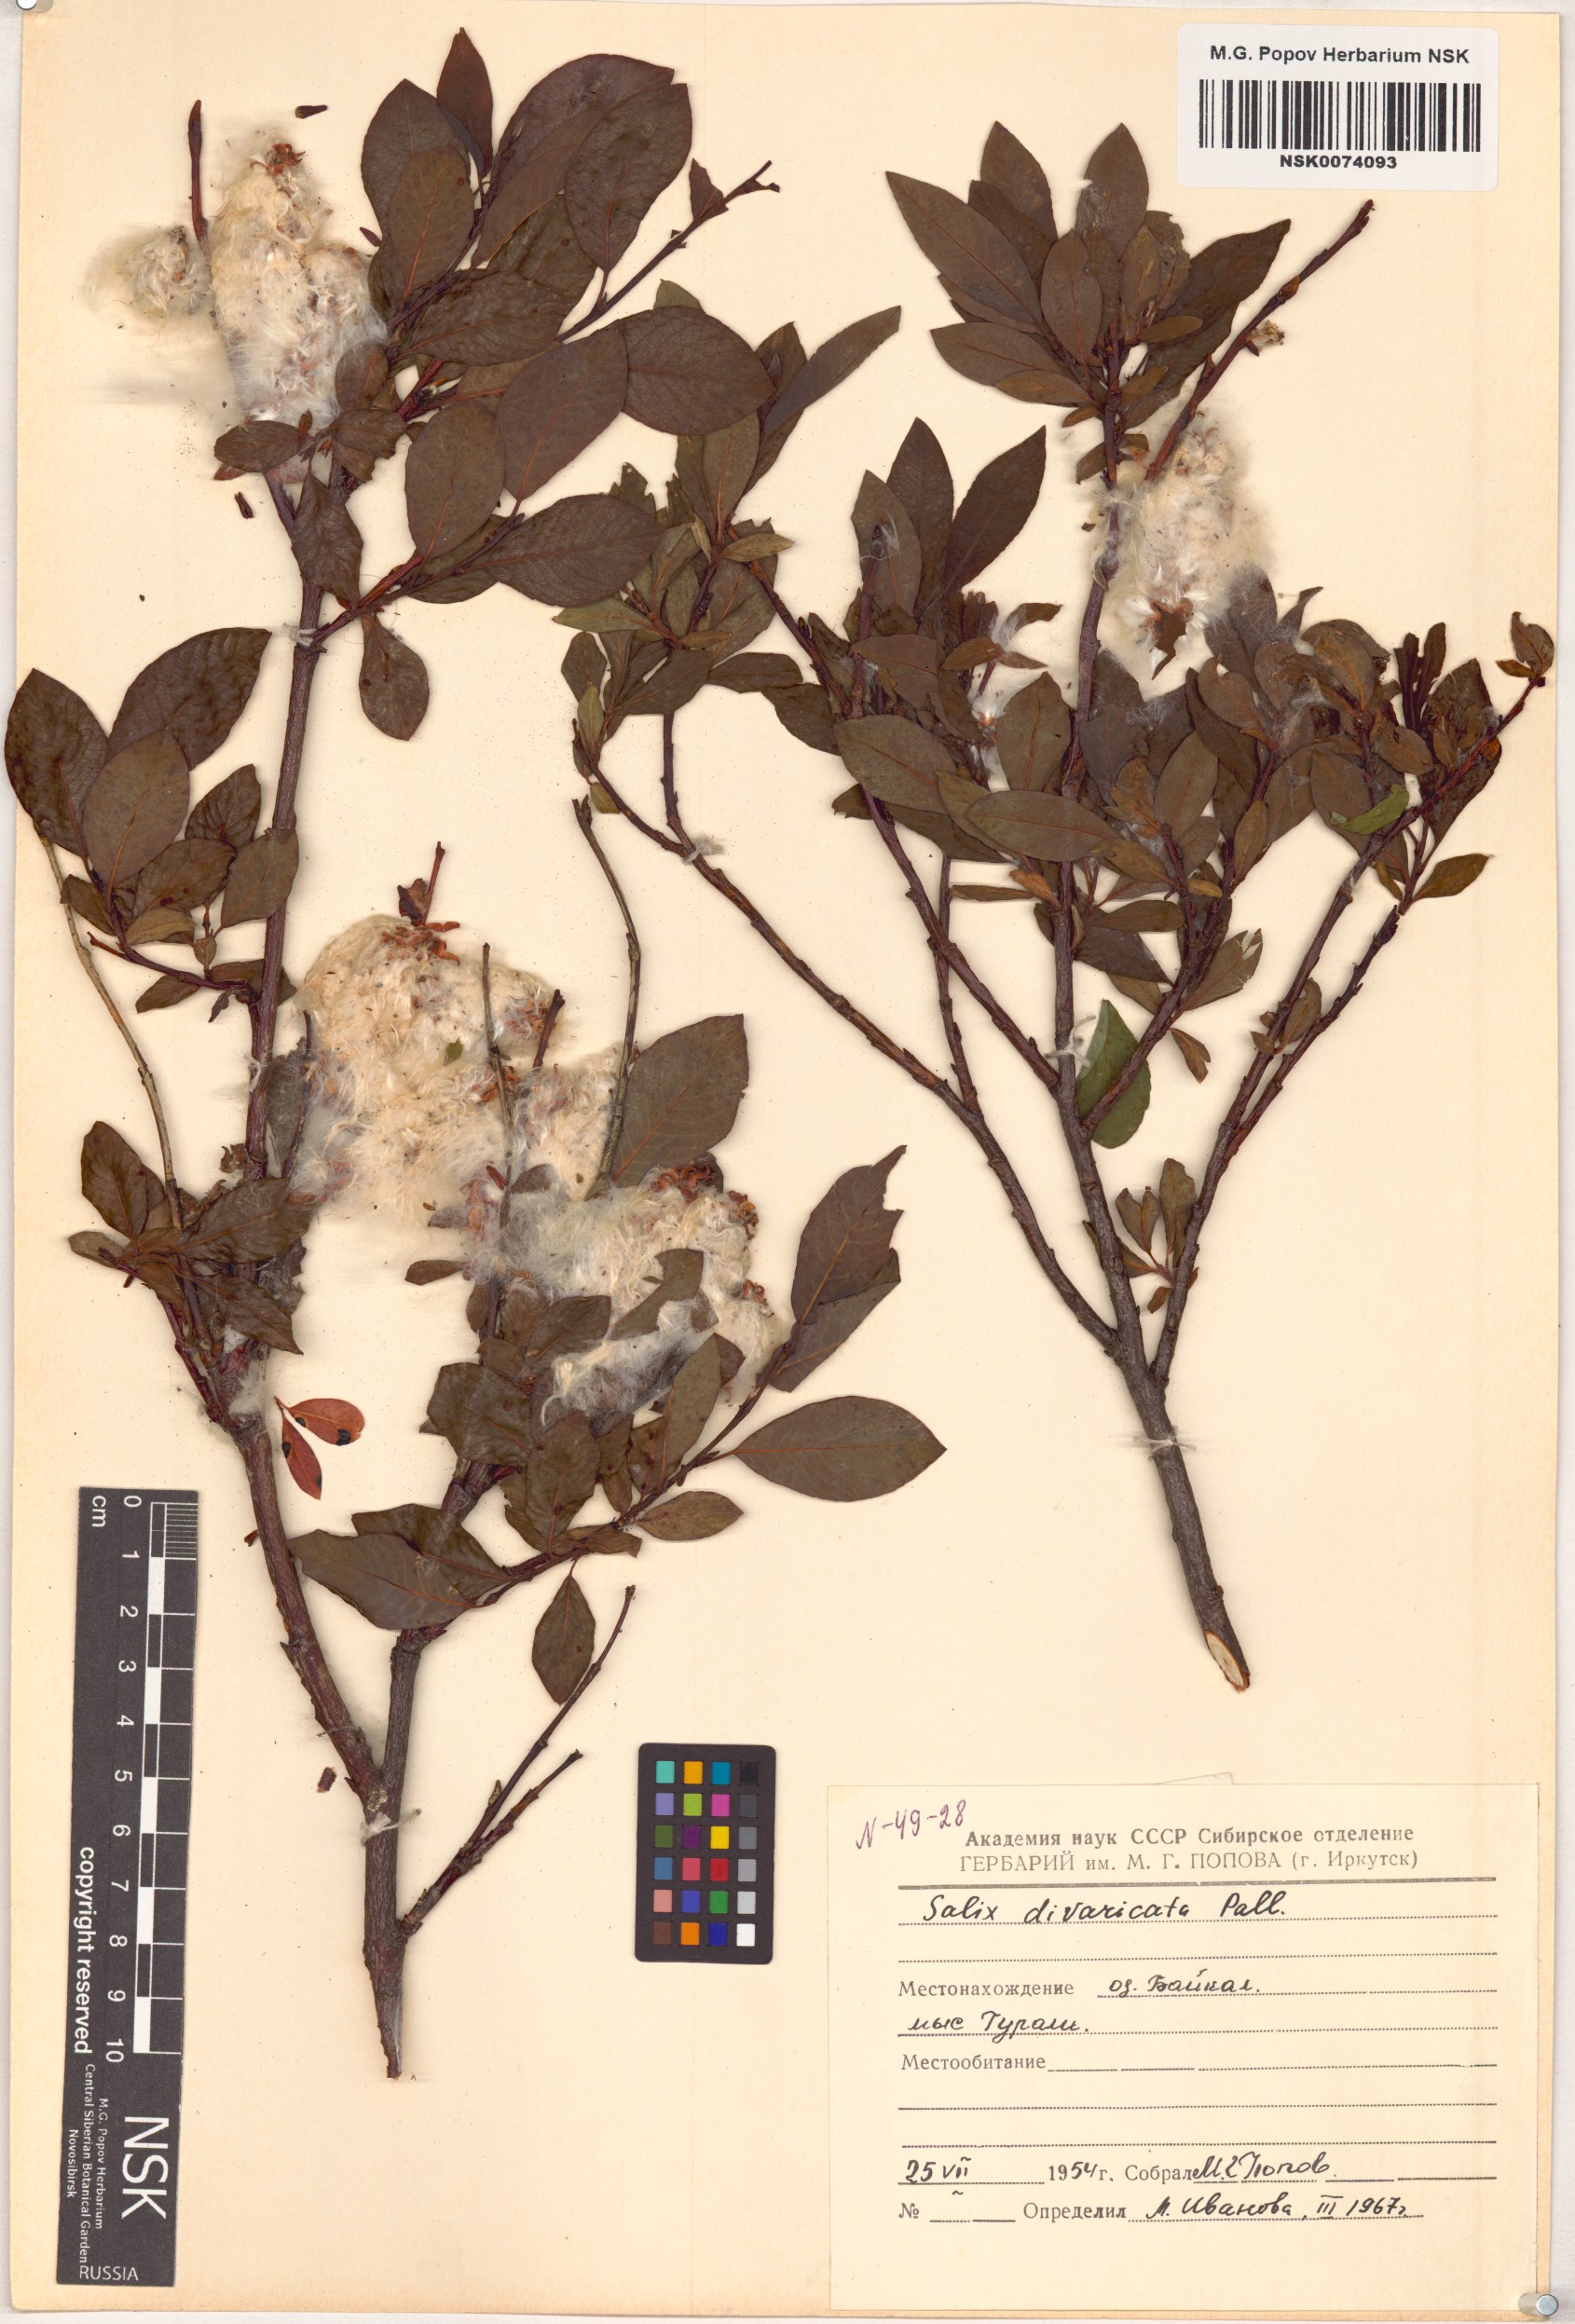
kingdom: Plantae
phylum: Tracheophyta
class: Magnoliopsida
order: Malpighiales
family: Salicaceae
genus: Salix
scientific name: Salix divaricata
